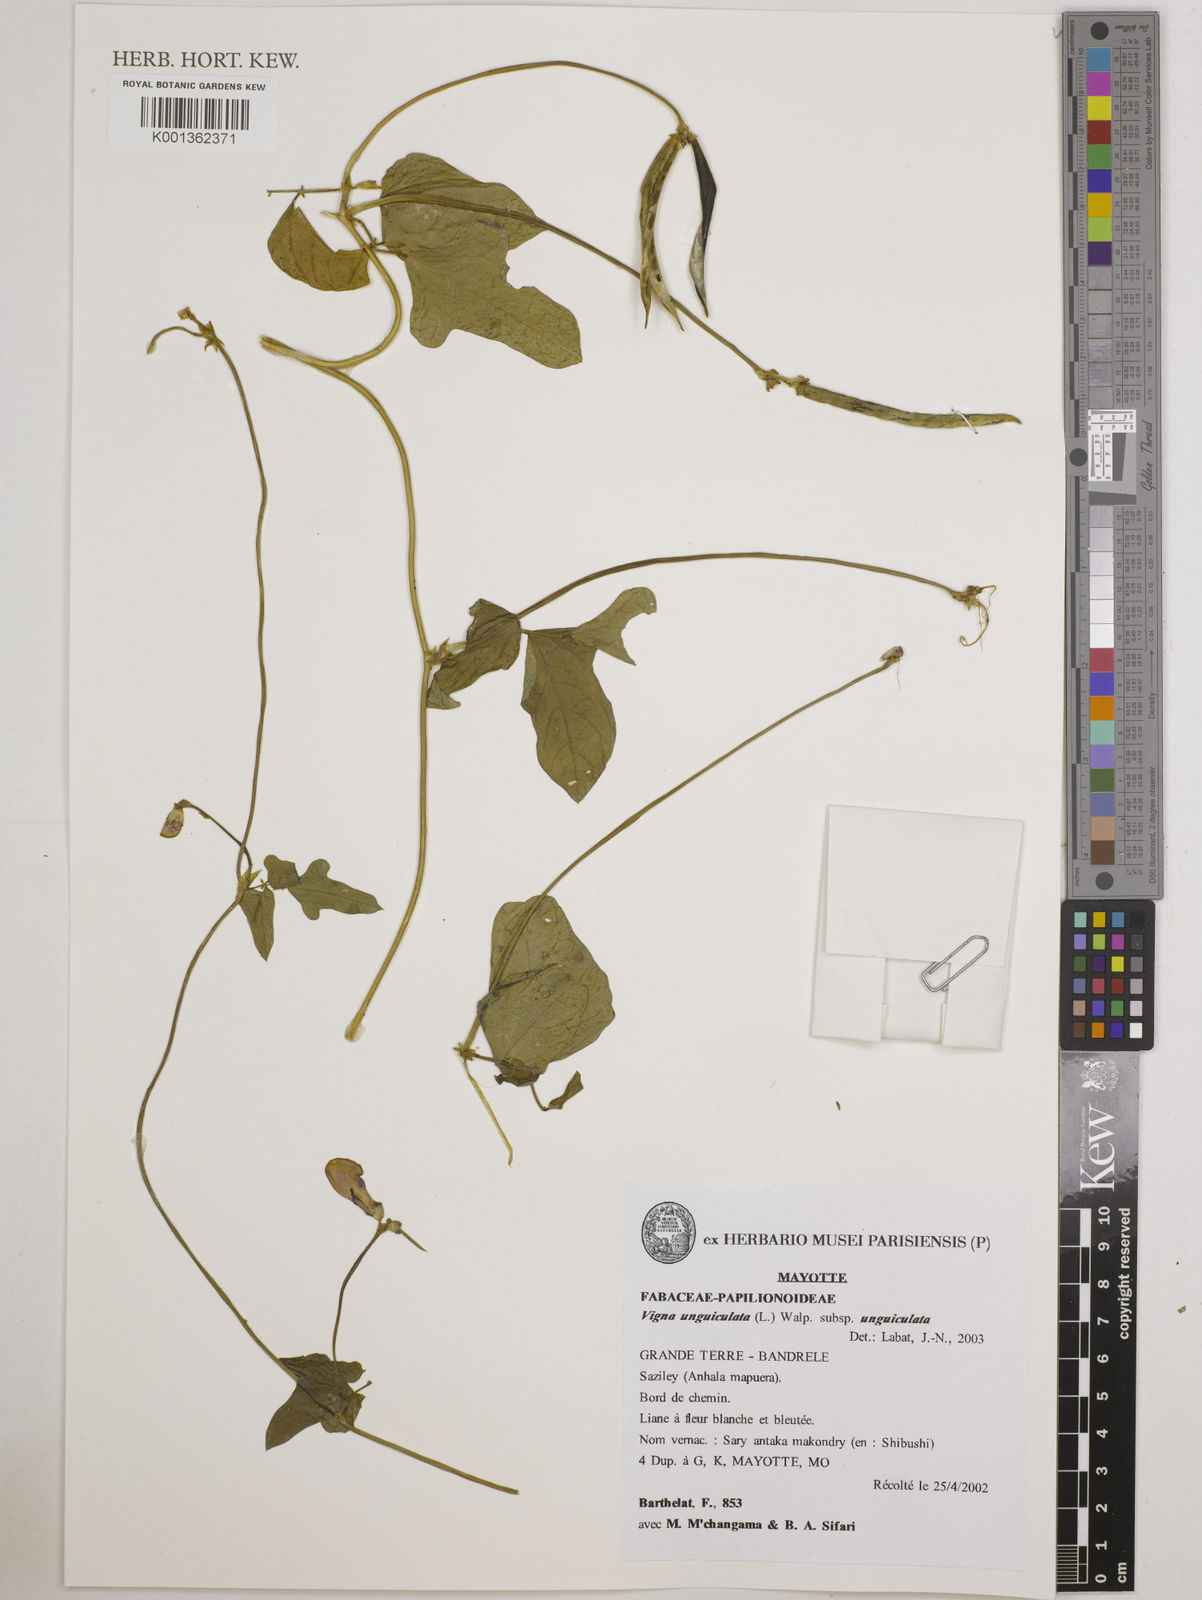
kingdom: Plantae
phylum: Tracheophyta
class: Magnoliopsida
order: Fabales
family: Fabaceae
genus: Vigna
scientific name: Vigna
